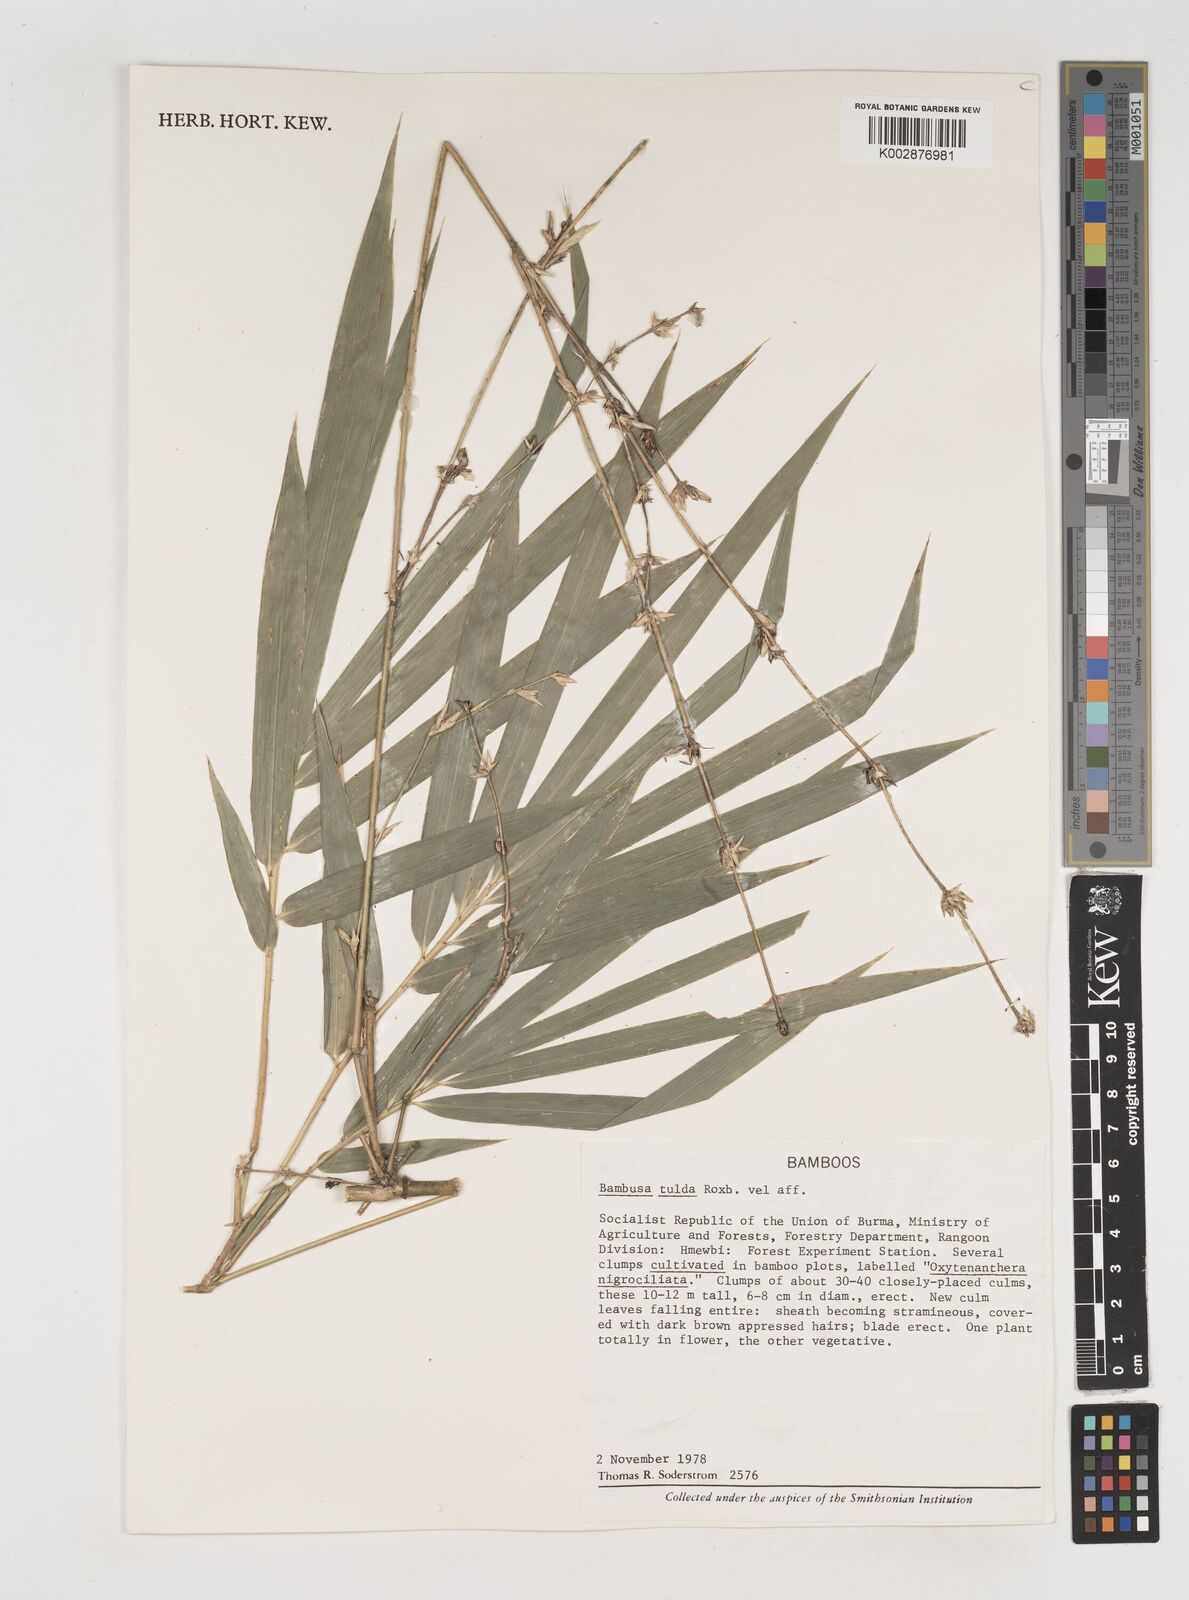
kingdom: Plantae
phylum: Tracheophyta
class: Liliopsida
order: Poales
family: Poaceae
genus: Bambusa
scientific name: Bambusa tulda
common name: Bengal bamboo
